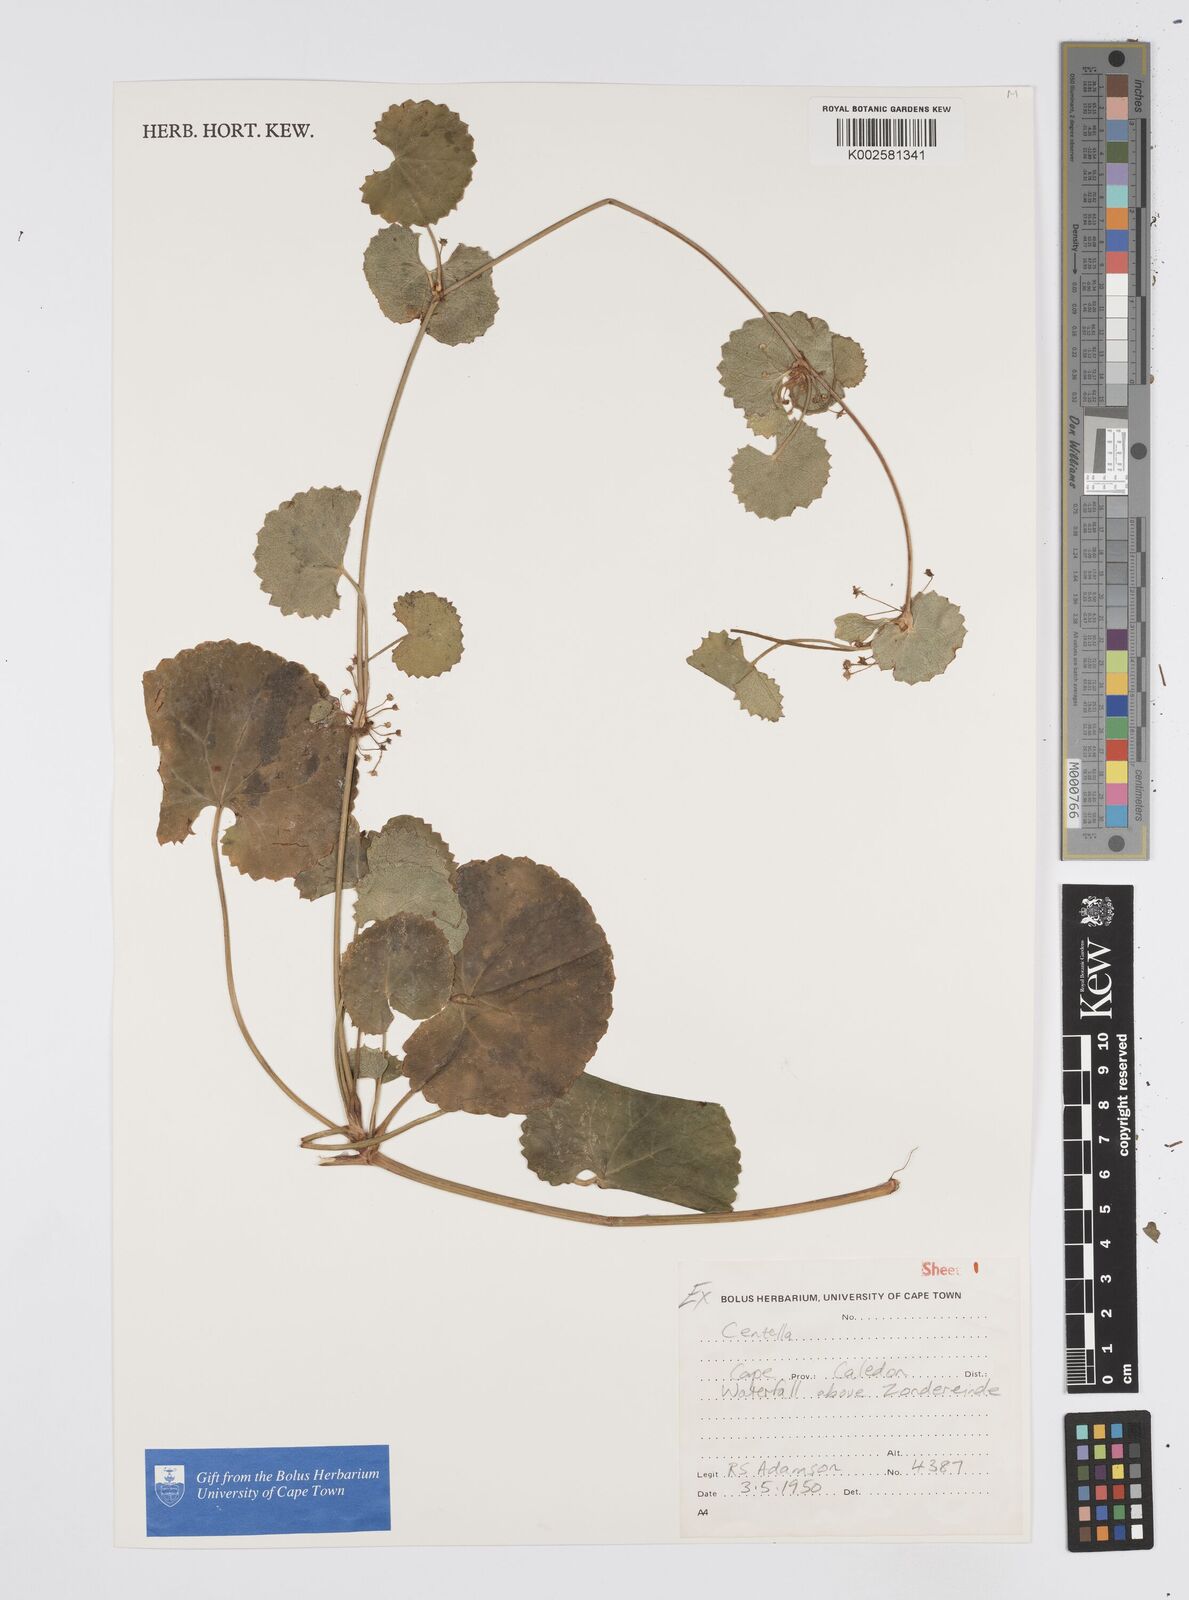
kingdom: Plantae
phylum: Tracheophyta
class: Magnoliopsida
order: Apiales
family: Apiaceae
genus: Centella
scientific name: Centella
